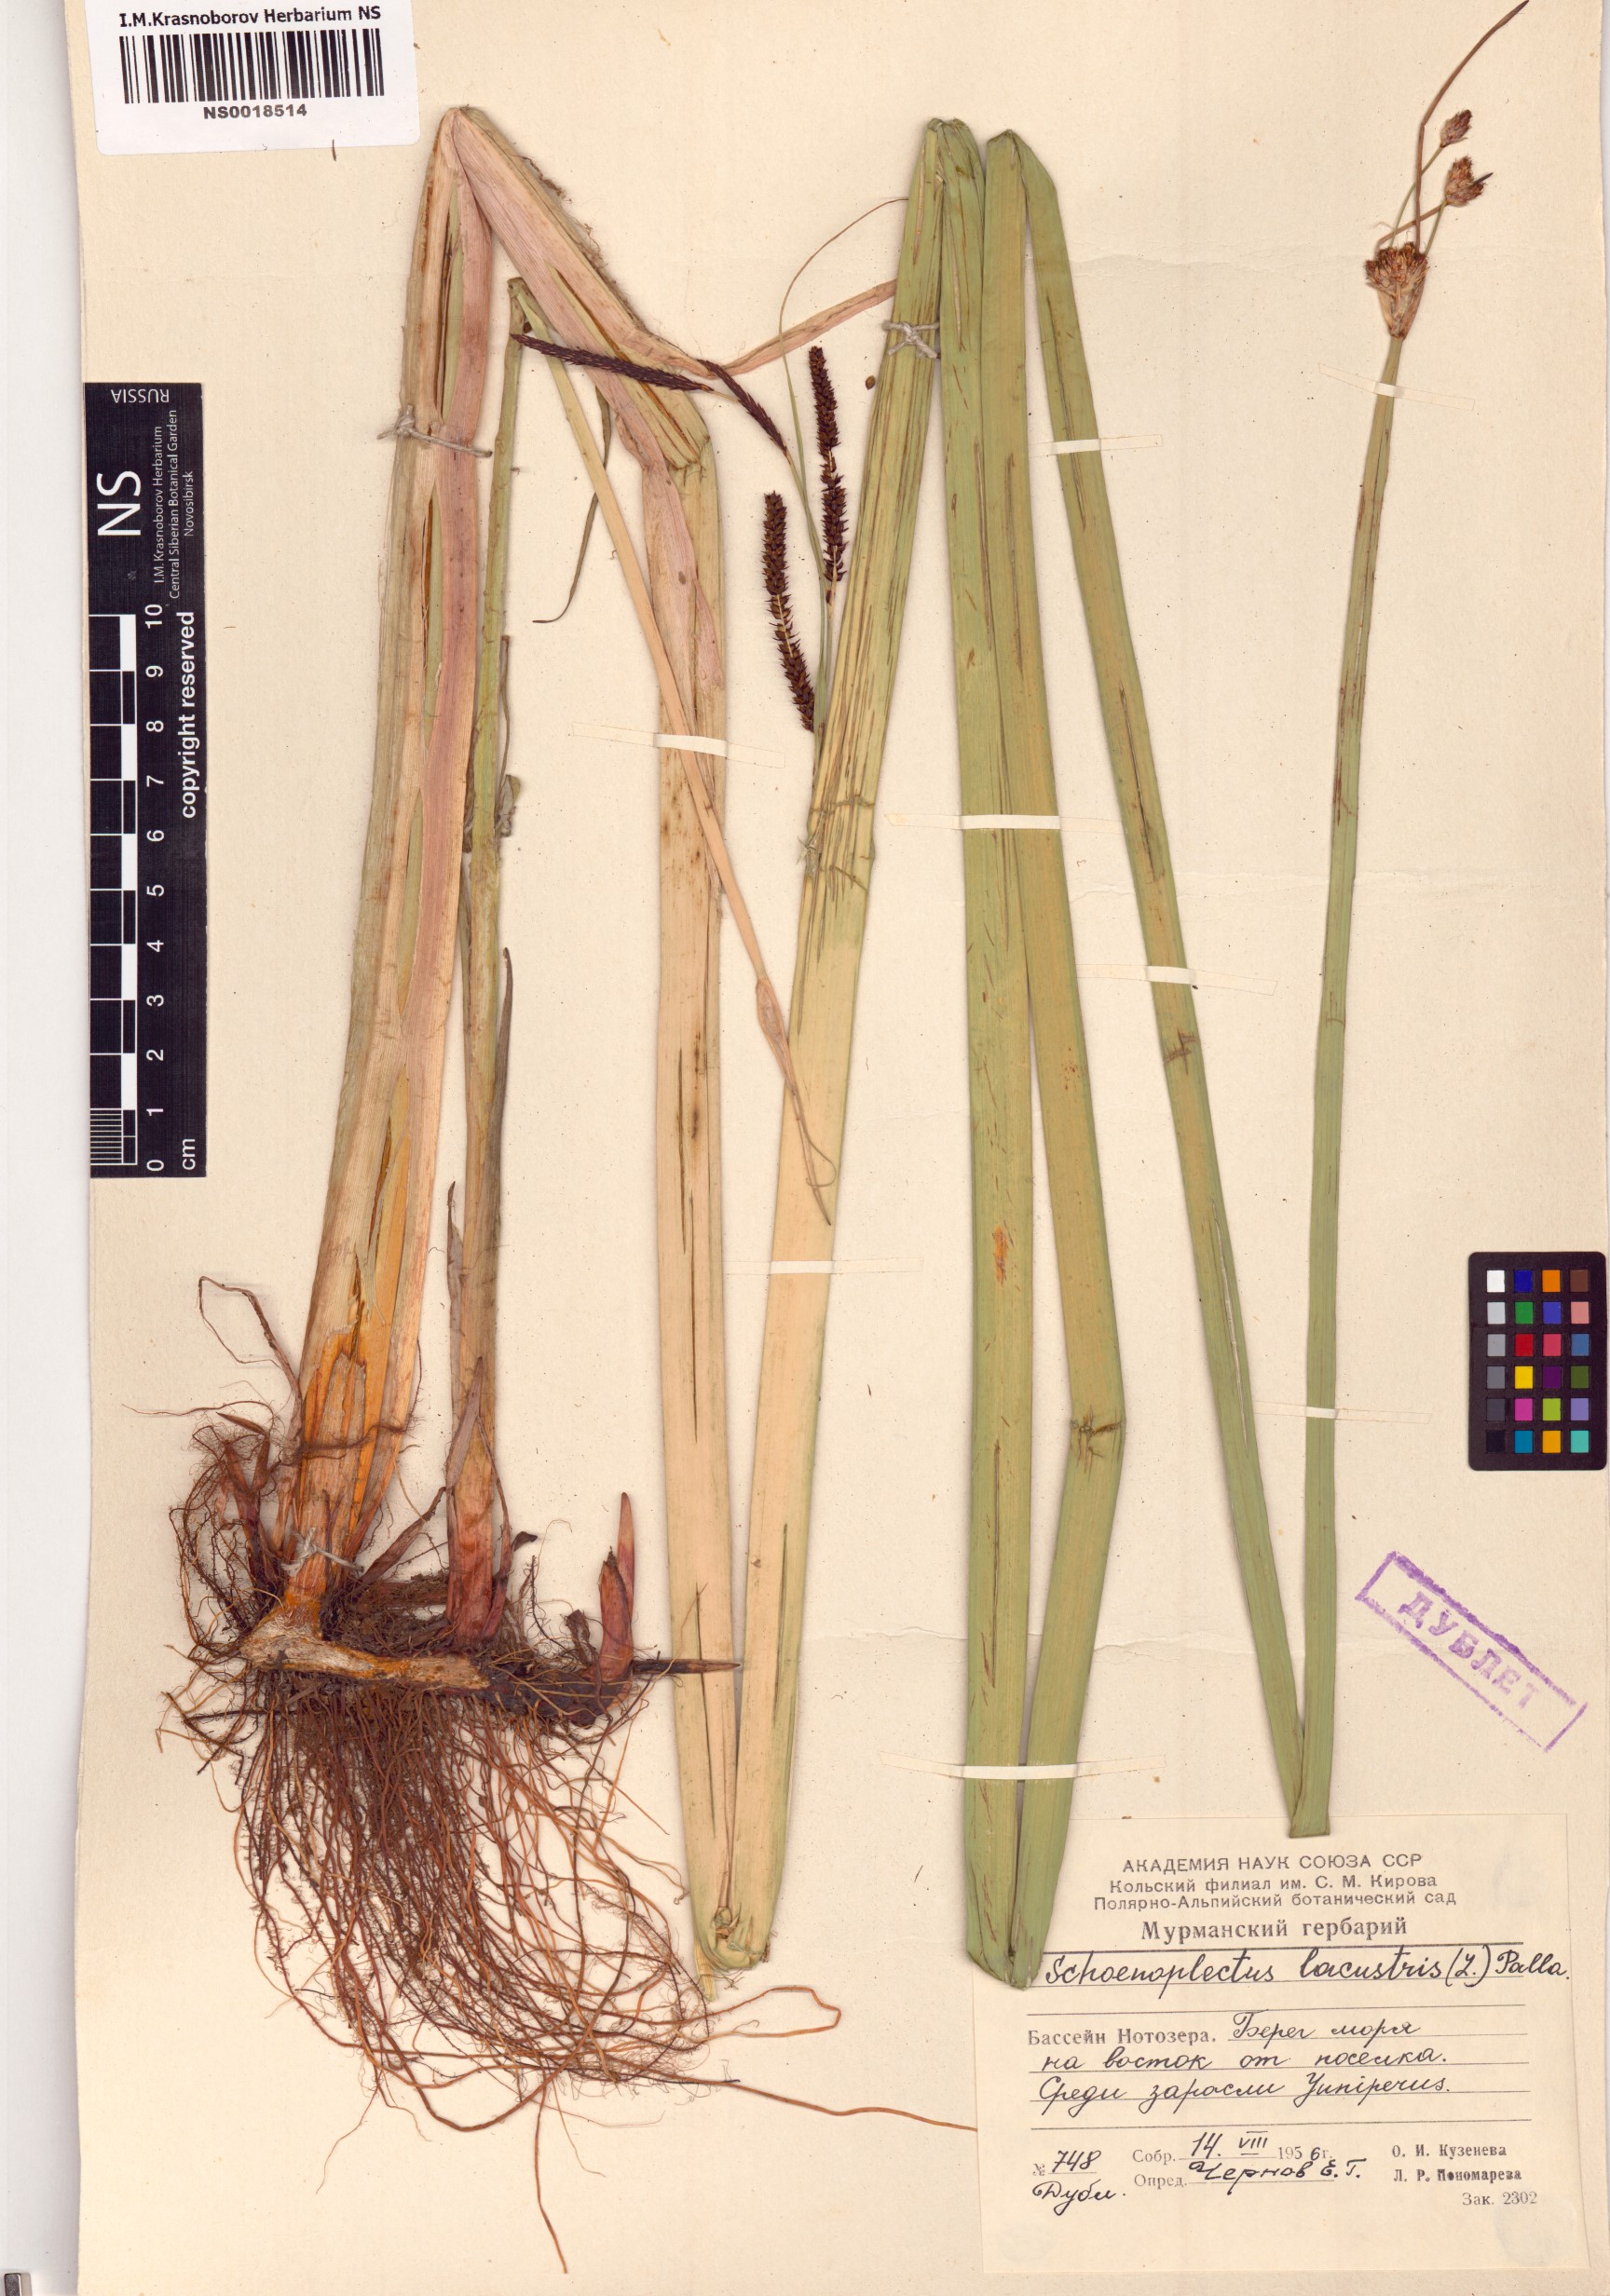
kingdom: Plantae
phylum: Tracheophyta
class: Liliopsida
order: Poales
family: Cyperaceae
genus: Schoenoplectus
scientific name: Schoenoplectus lacustris
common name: Common club-rush
